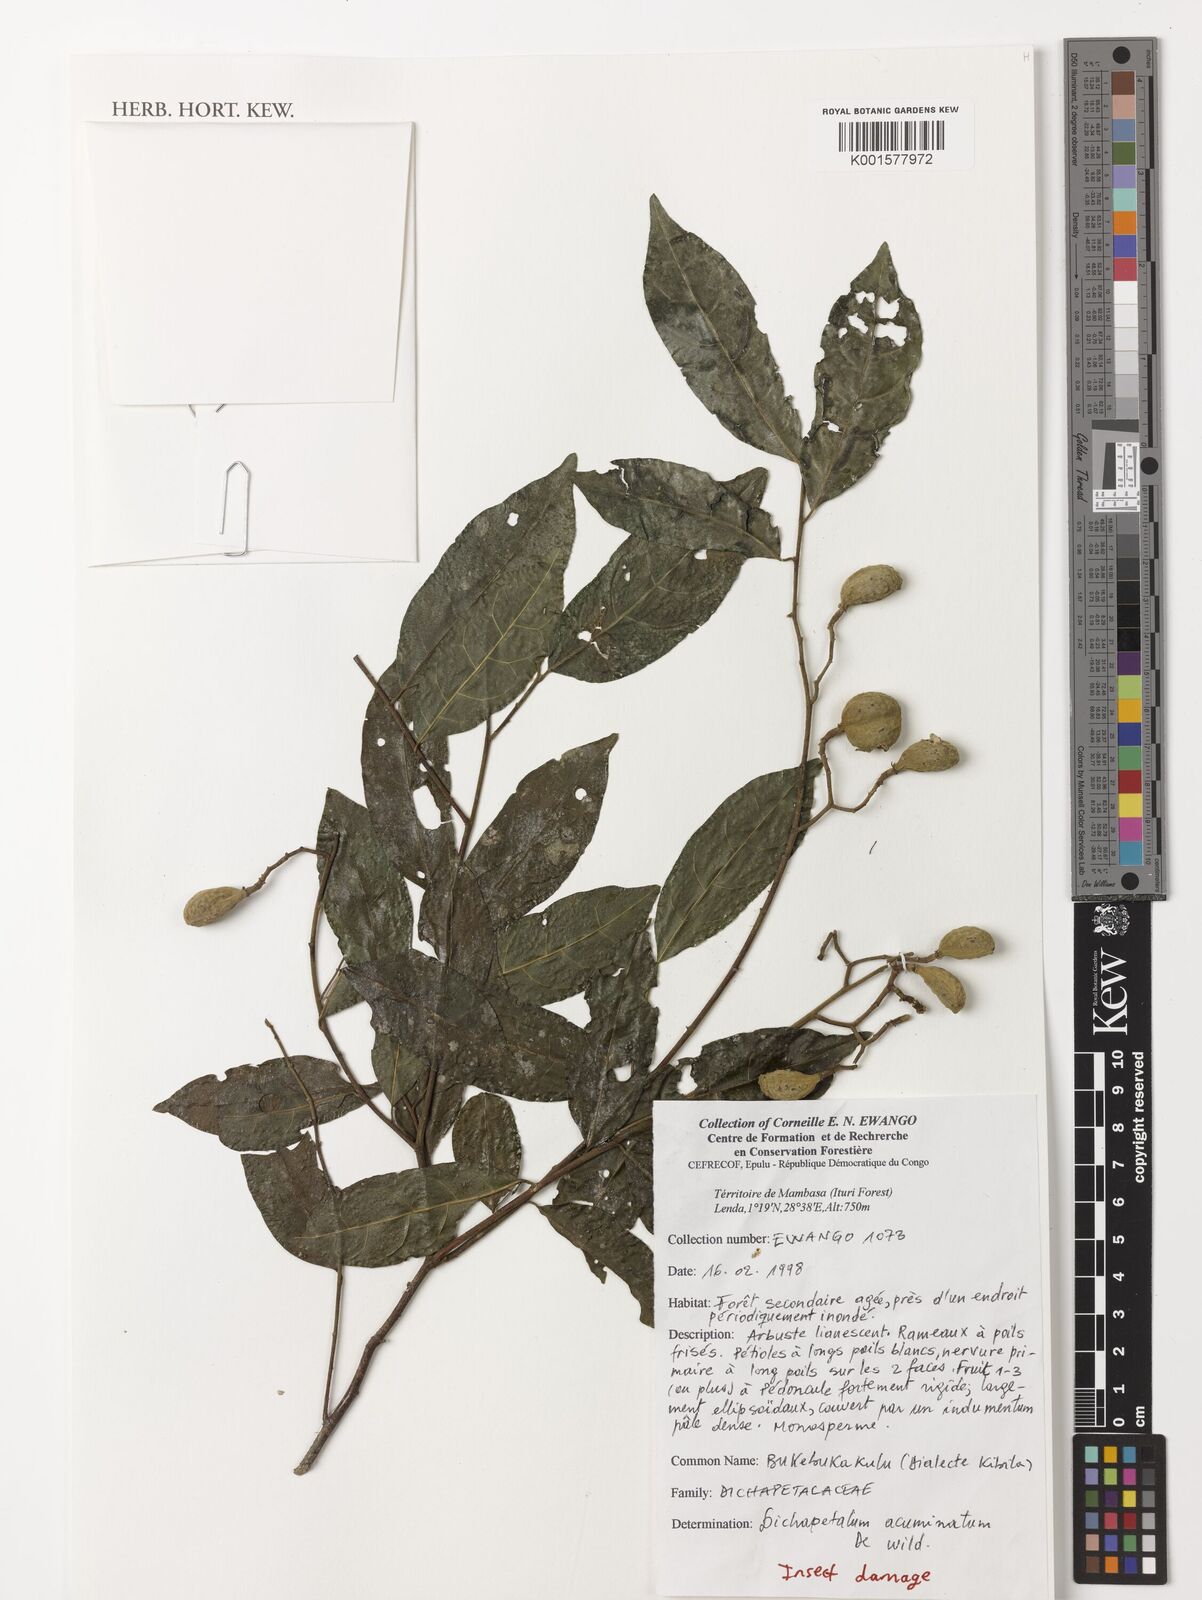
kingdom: Plantae
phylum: Tracheophyta
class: Magnoliopsida
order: Malpighiales
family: Dichapetalaceae
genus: Dichapetalum
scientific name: Dichapetalum acuminatum
